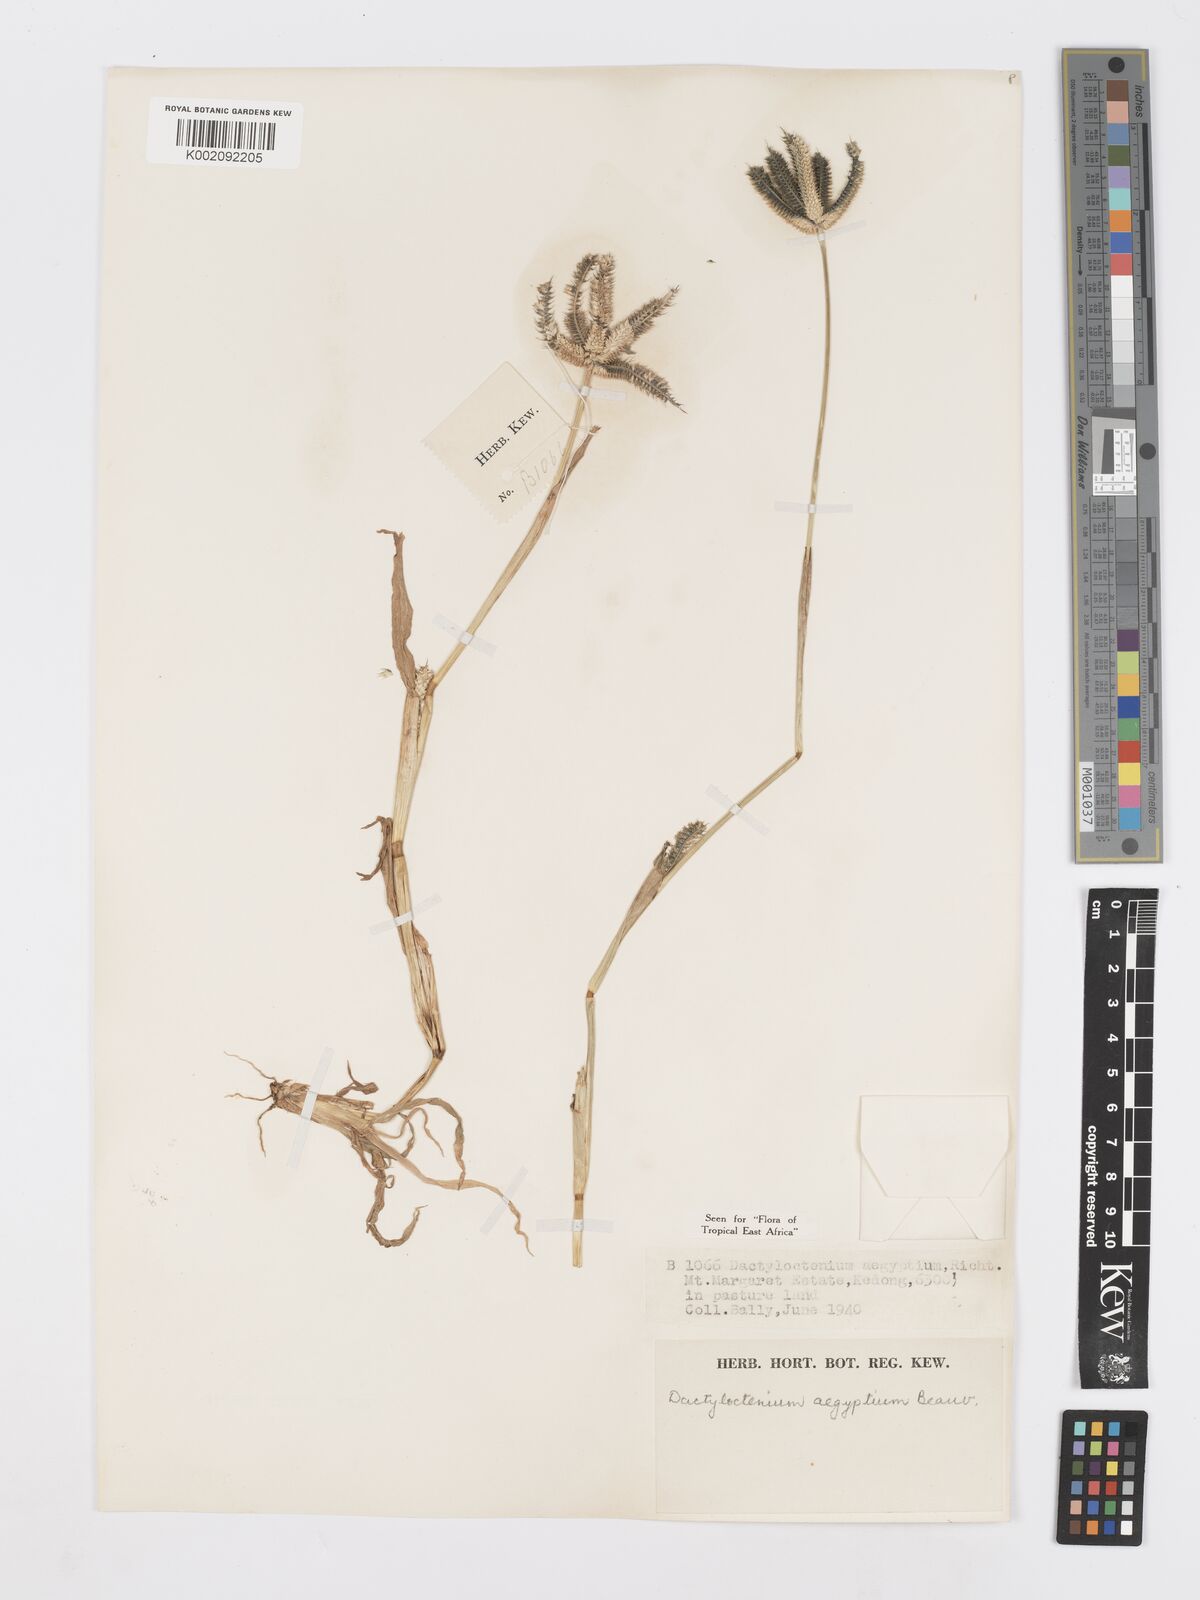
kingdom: Plantae
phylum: Tracheophyta
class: Liliopsida
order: Poales
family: Poaceae
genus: Dactyloctenium
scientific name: Dactyloctenium aegyptium
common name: Egyptian grass
